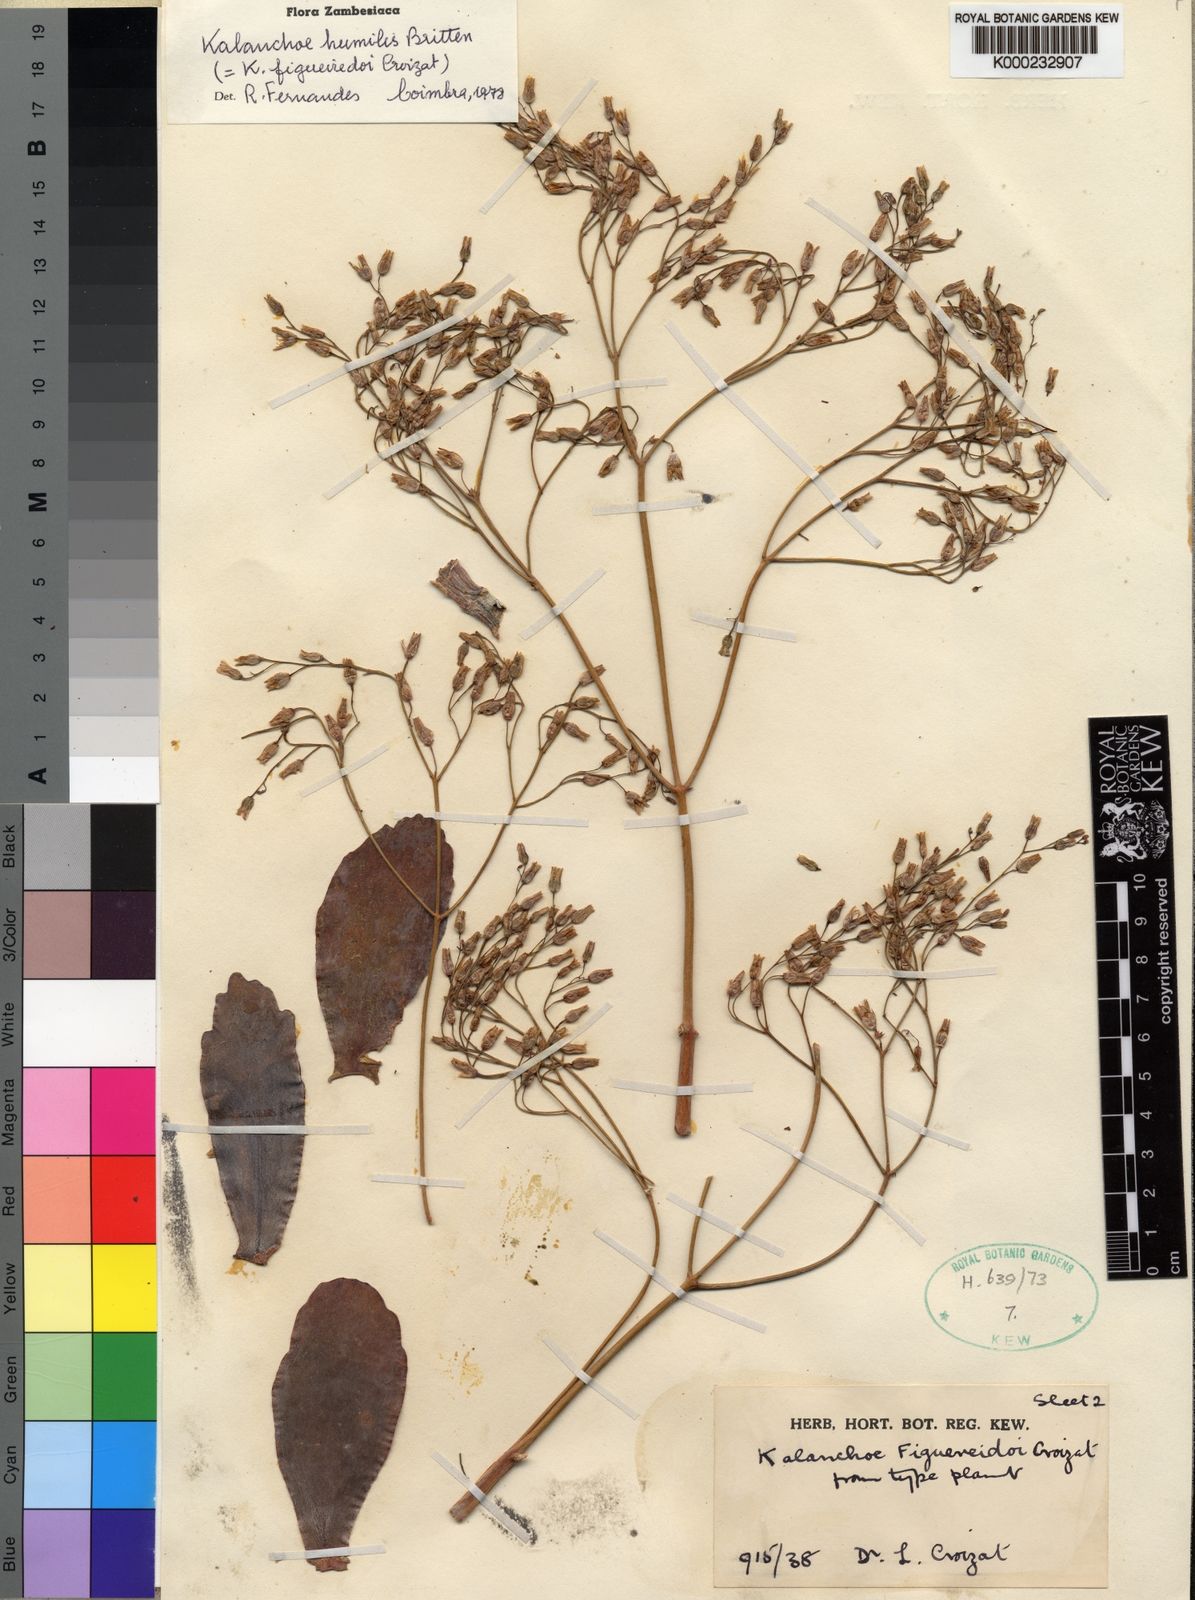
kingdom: Plantae
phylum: Tracheophyta
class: Magnoliopsida
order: Saxifragales
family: Crassulaceae
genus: Kalanchoe
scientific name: Kalanchoe humilis
